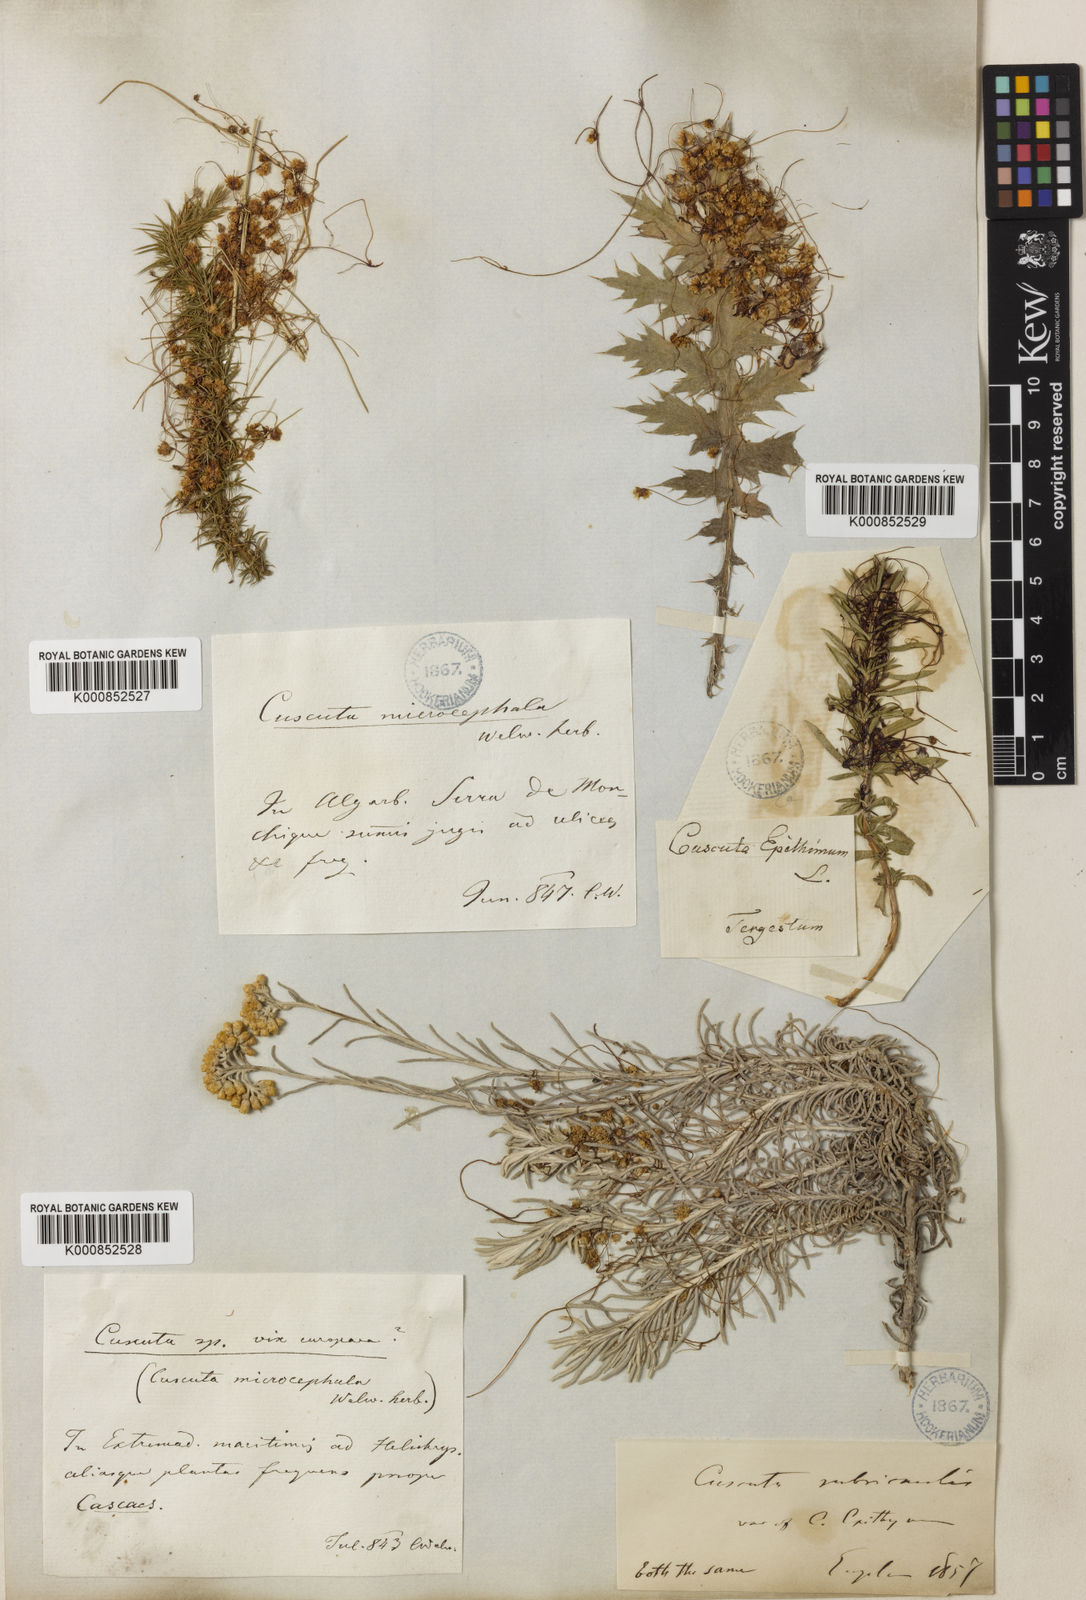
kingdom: Plantae
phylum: Tracheophyta
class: Magnoliopsida
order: Solanales
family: Convolvulaceae
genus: Cuscuta
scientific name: Cuscuta epithymum
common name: Clover dodder
